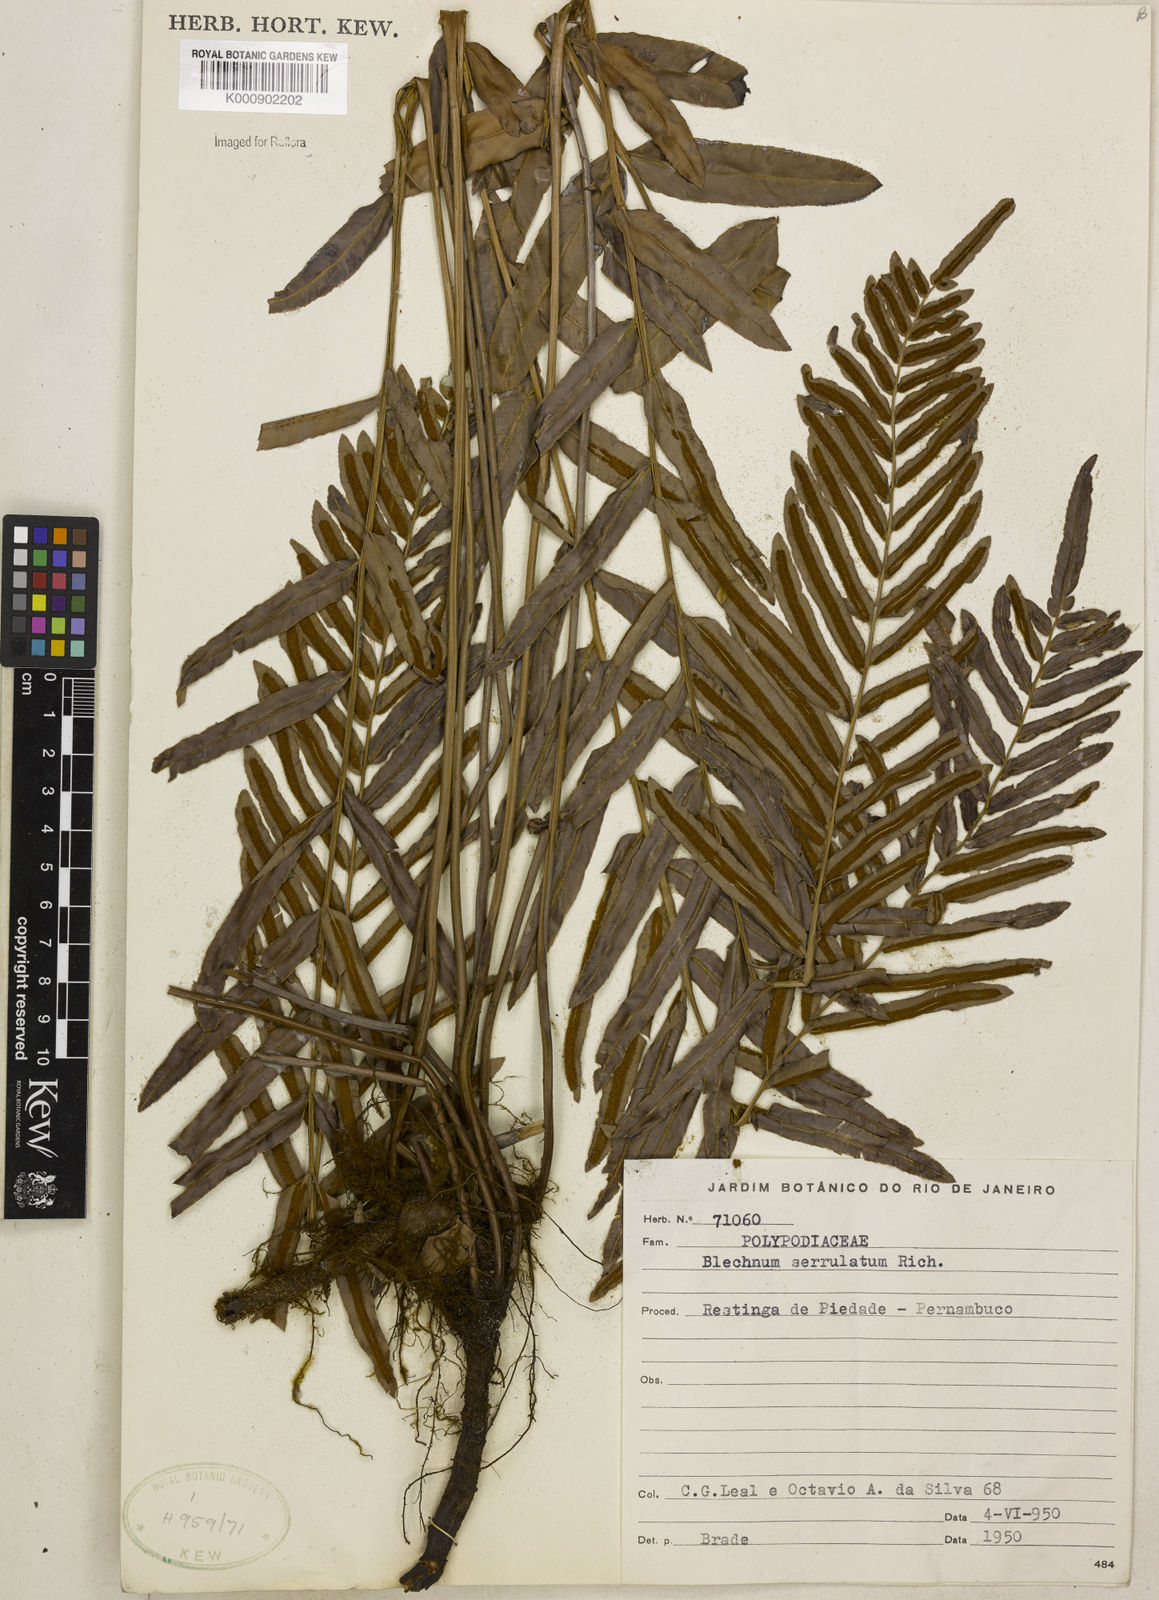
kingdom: Plantae
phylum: Tracheophyta
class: Polypodiopsida
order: Polypodiales
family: Blechnaceae
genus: Telmatoblechnum
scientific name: Telmatoblechnum serrulatum
